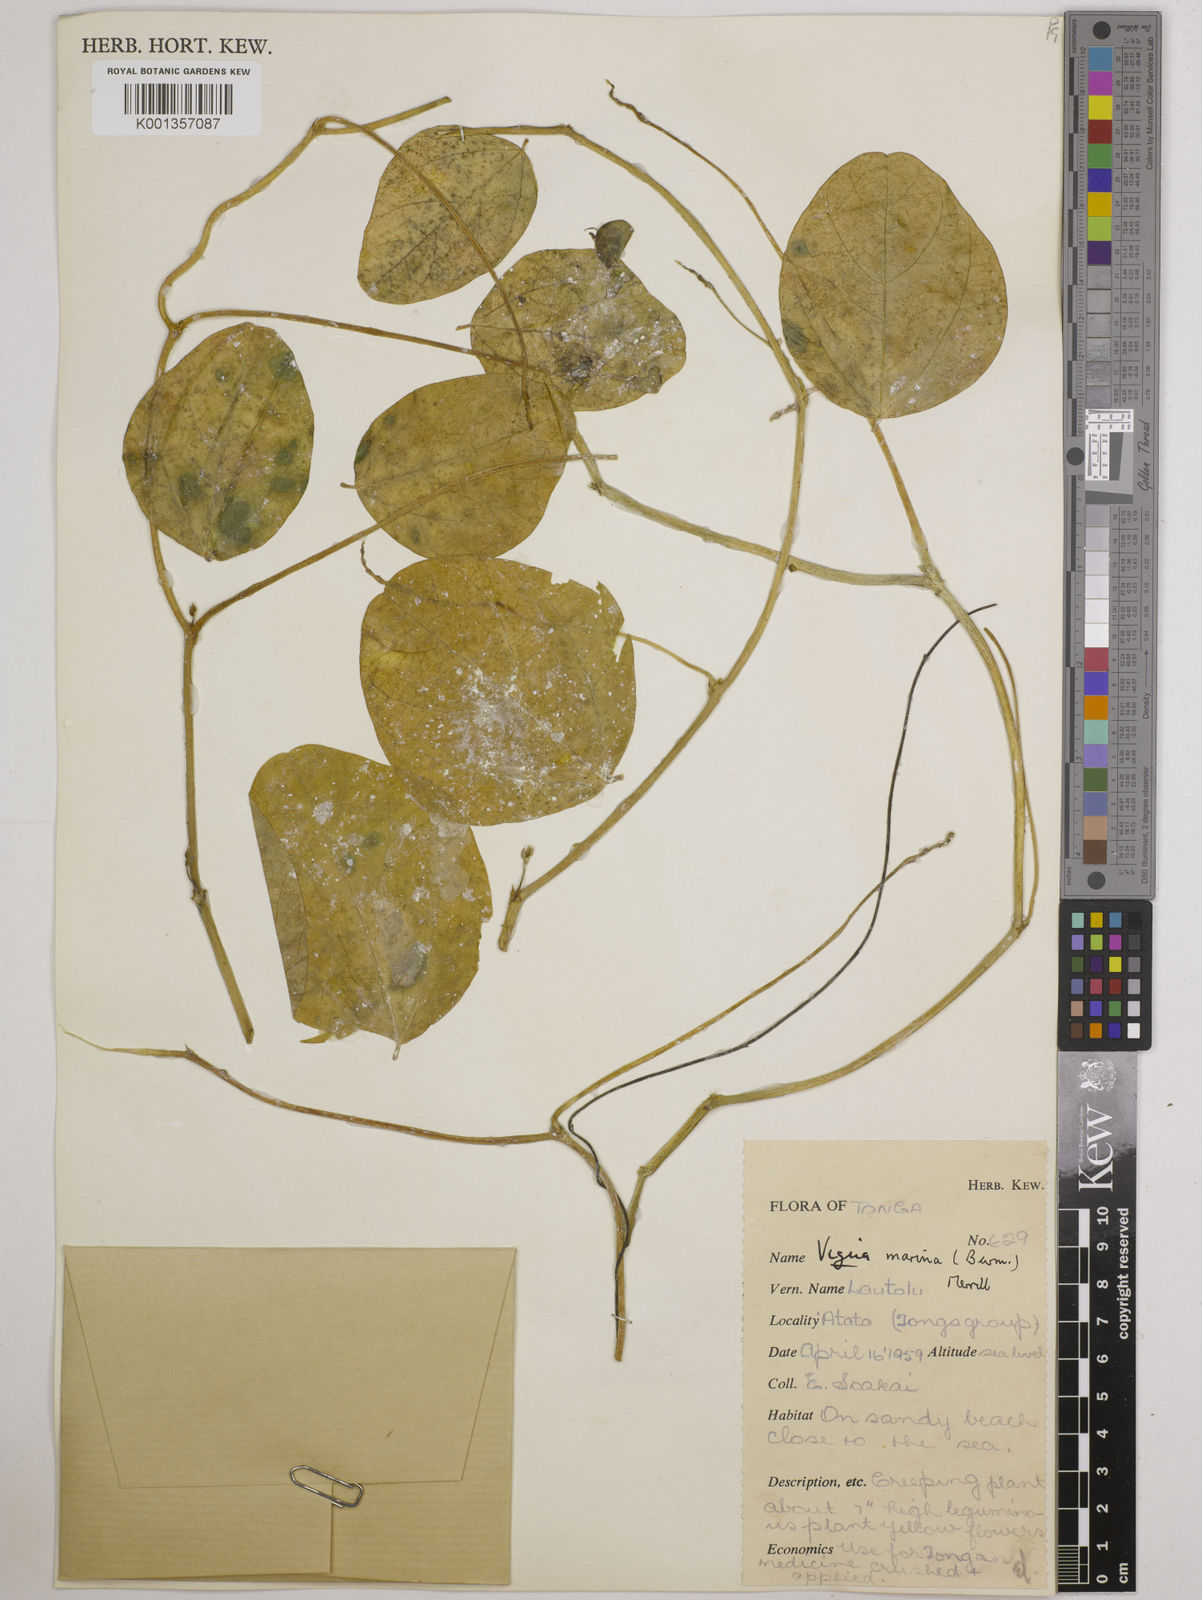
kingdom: Plantae
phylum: Tracheophyta
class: Magnoliopsida
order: Fabales
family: Fabaceae
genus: Vigna
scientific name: Vigna marina
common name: Dune-bean
